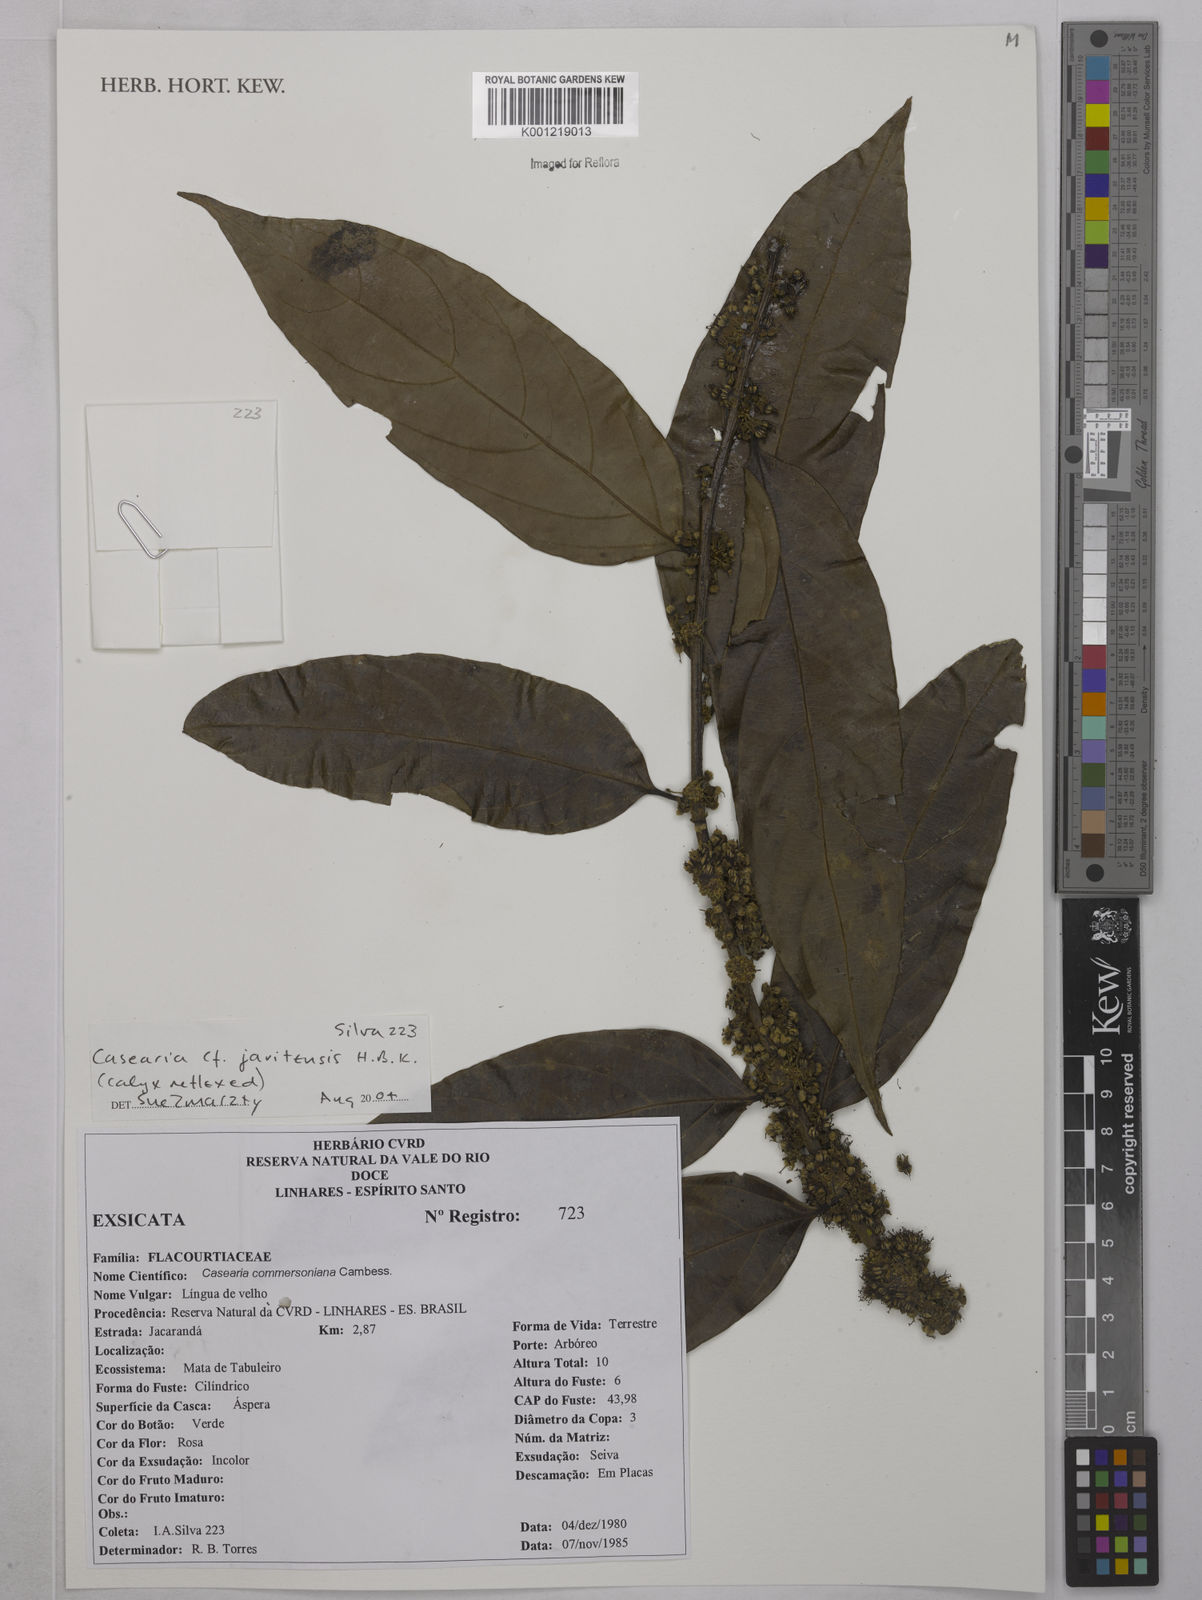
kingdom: Plantae
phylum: Tracheophyta
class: Magnoliopsida
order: Malpighiales
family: Salicaceae
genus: Piparea
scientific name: Piparea multiflora
